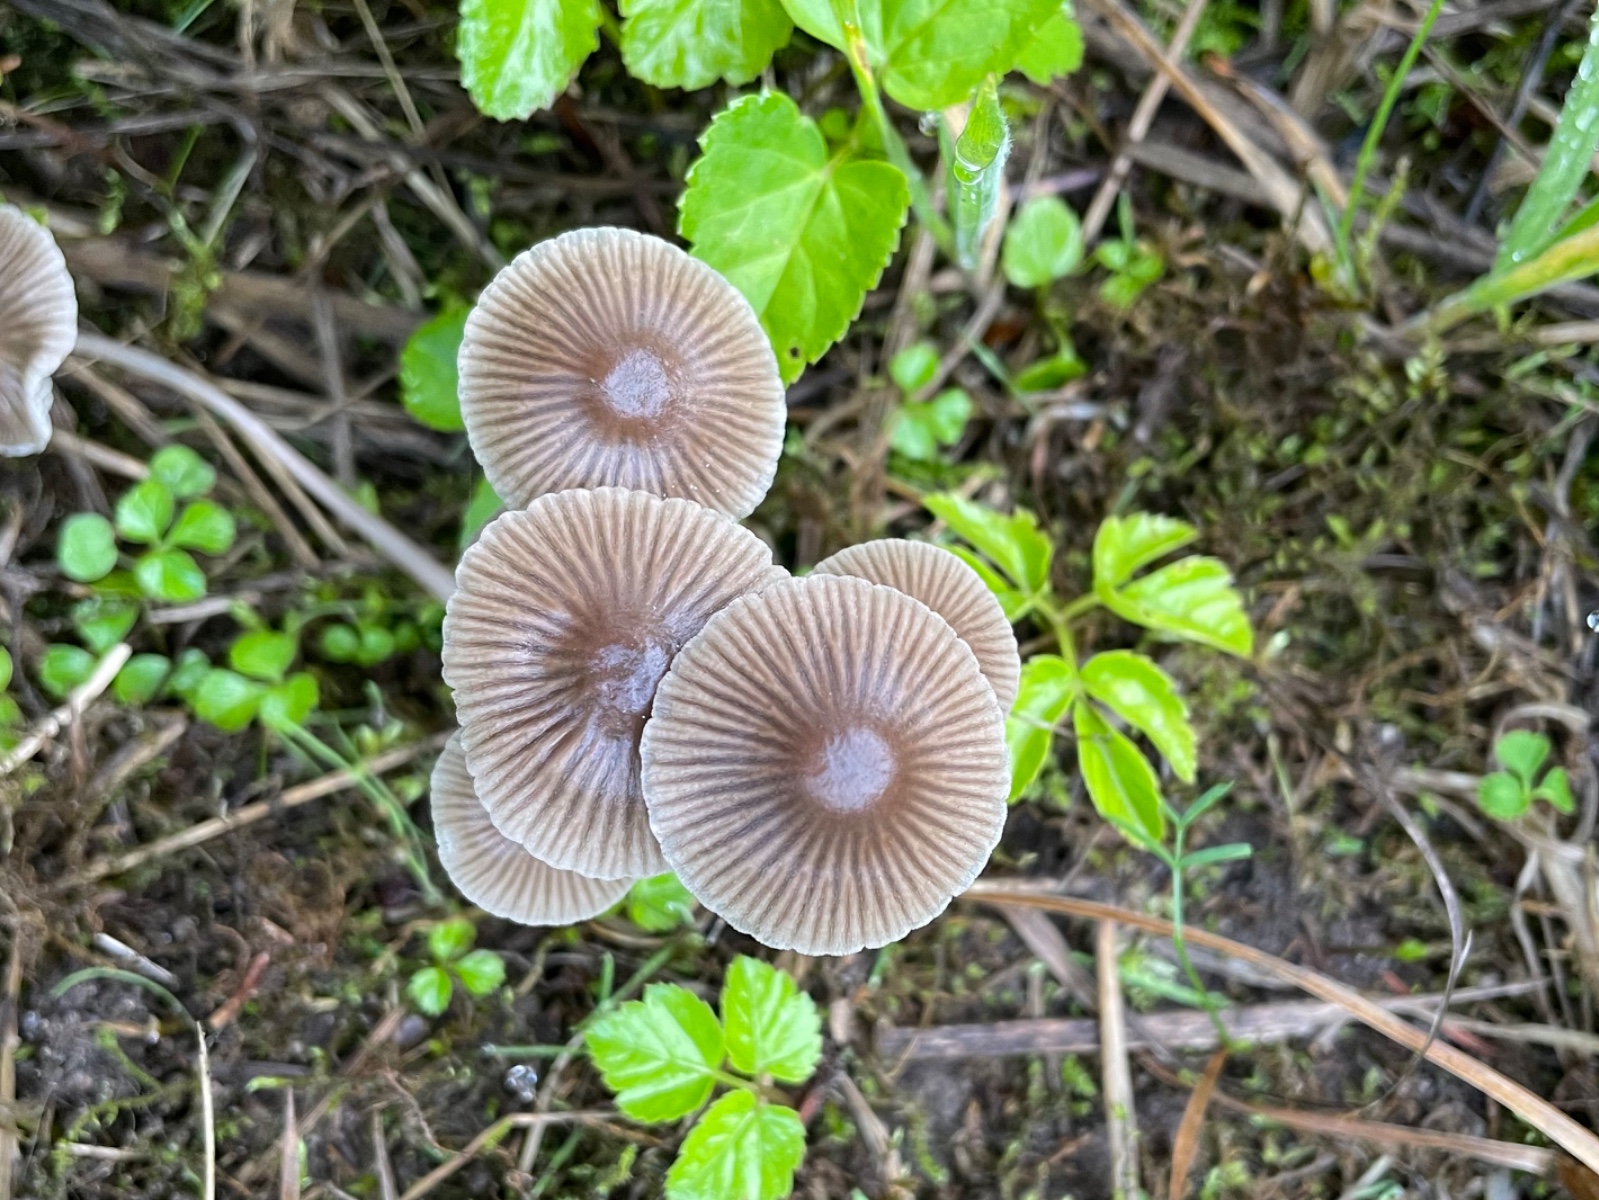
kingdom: Fungi
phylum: Basidiomycota
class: Agaricomycetes
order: Agaricales
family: Mycenaceae
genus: Mycena
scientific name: Mycena stipata
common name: stinkende huesvamp
